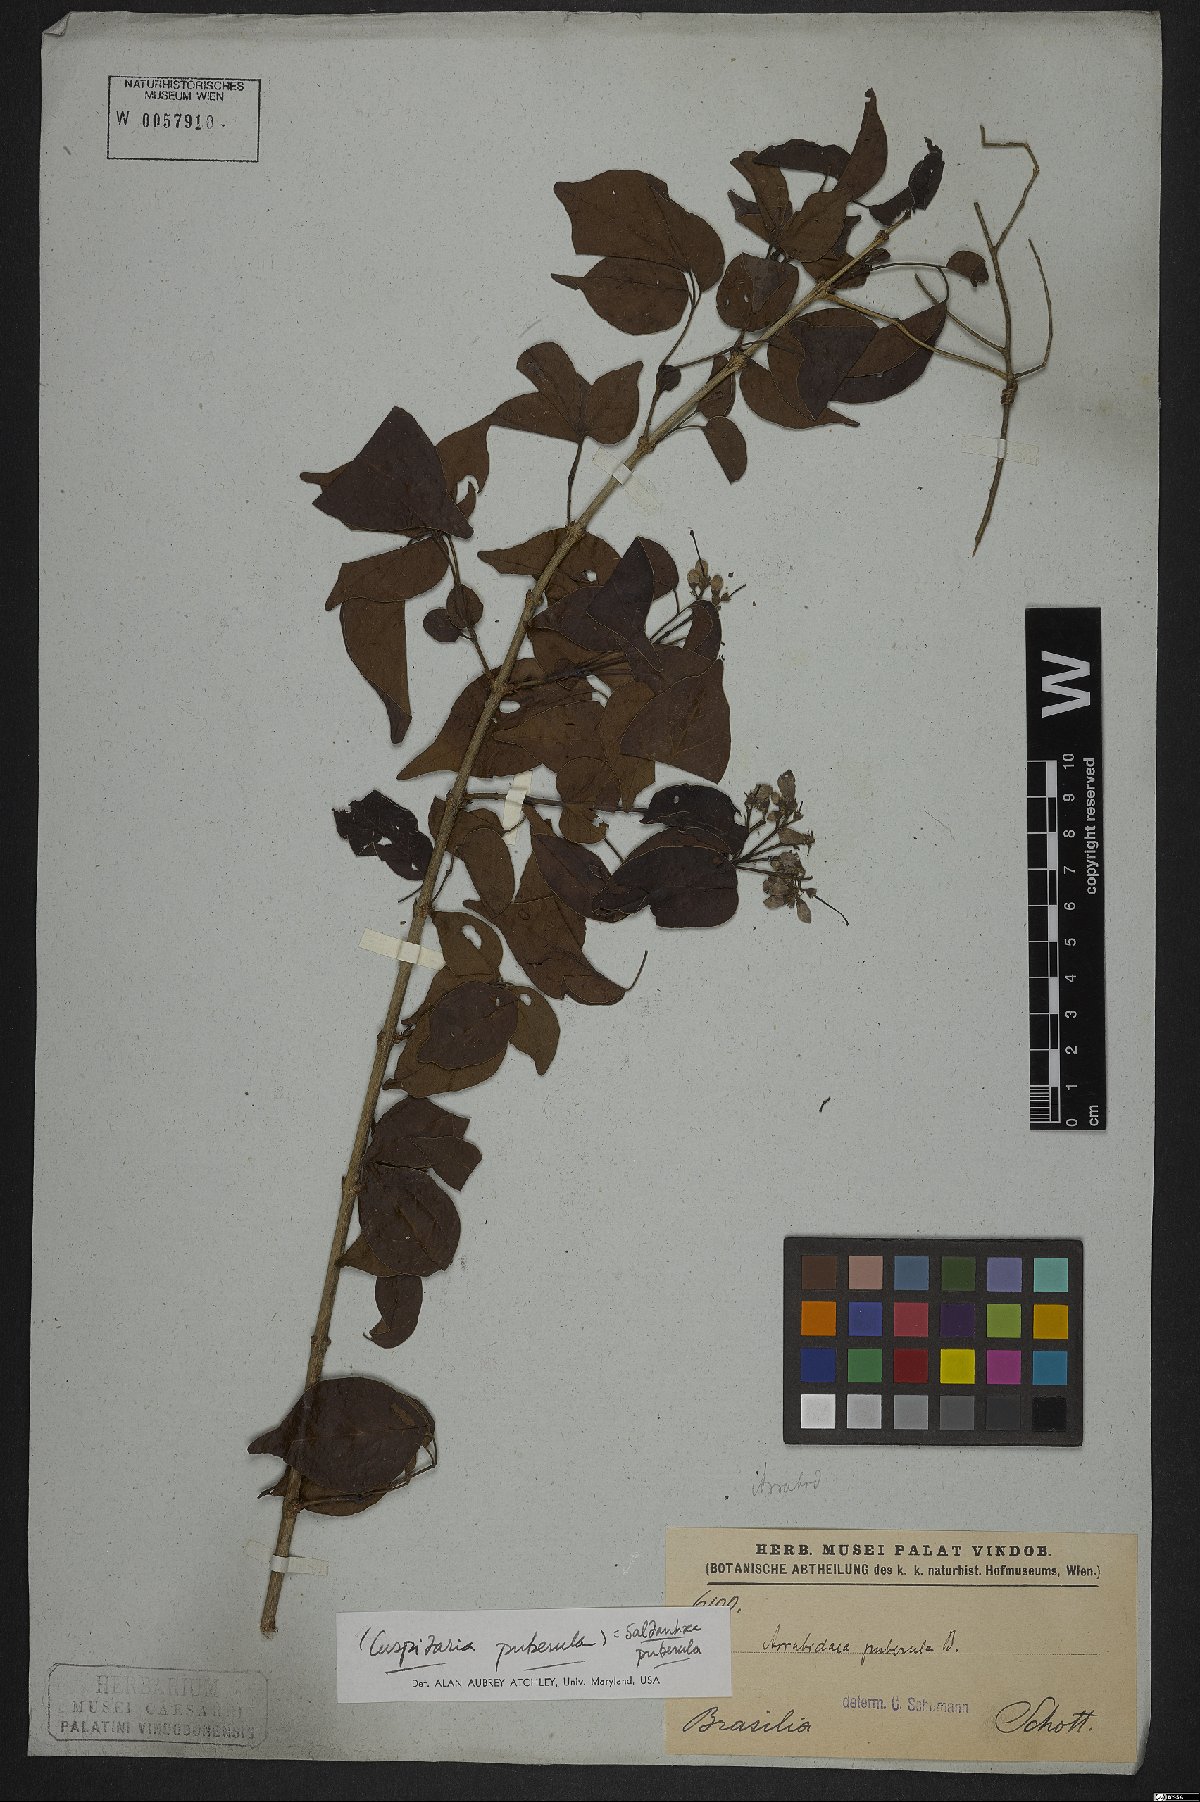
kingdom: Plantae
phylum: Tracheophyta
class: Magnoliopsida
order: Lamiales
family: Bignoniaceae
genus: Cuspidaria
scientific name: Cuspidaria simplicifolia
